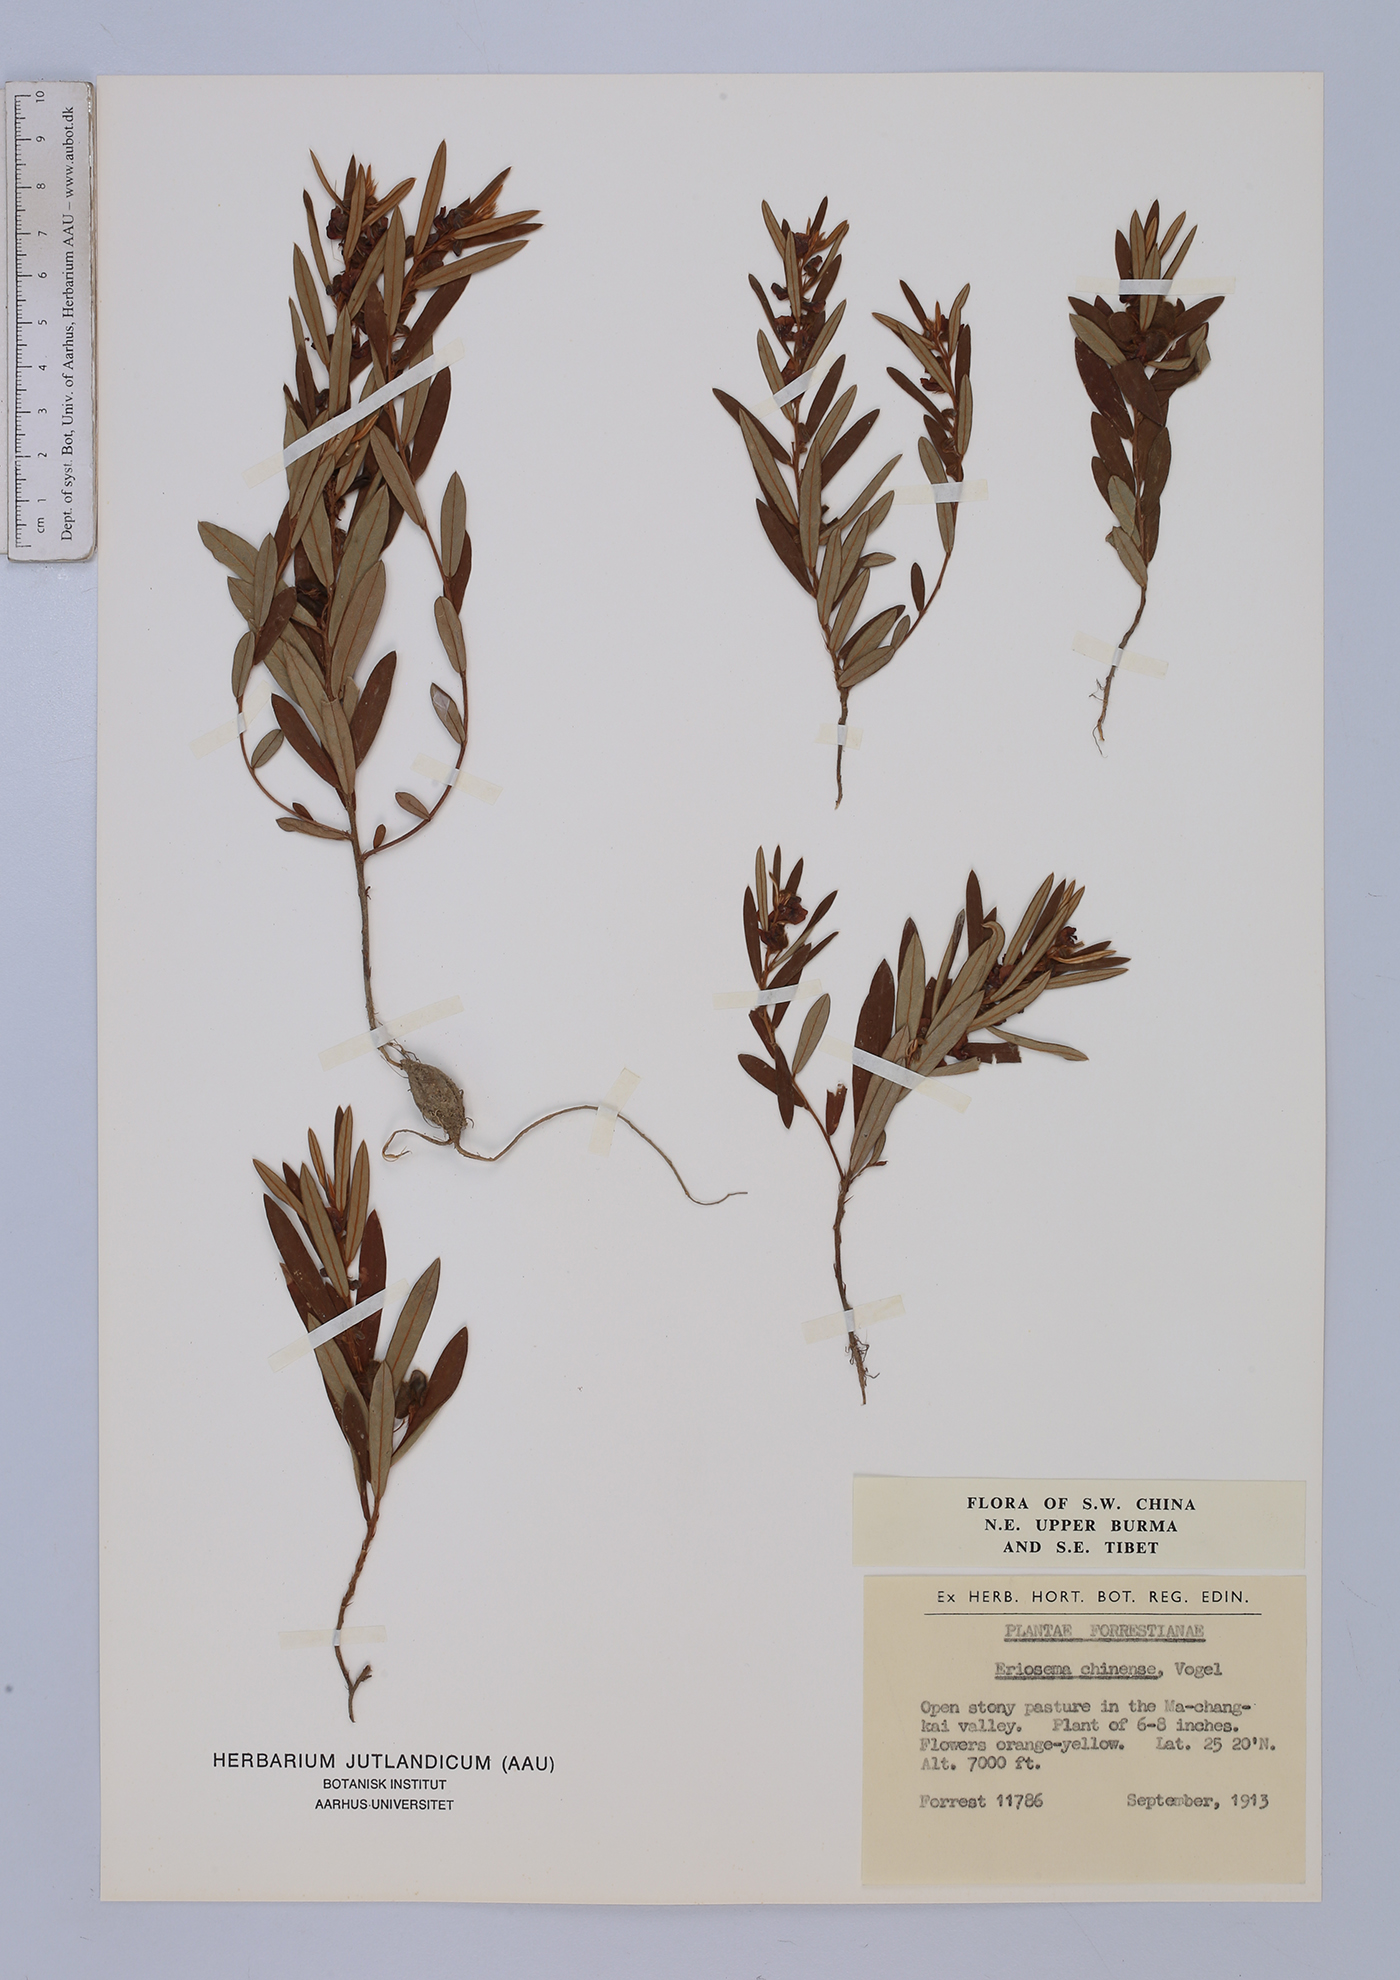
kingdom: Plantae
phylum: Tracheophyta
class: Magnoliopsida
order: Fabales
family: Fabaceae
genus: Eriosema
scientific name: Eriosema chinense
